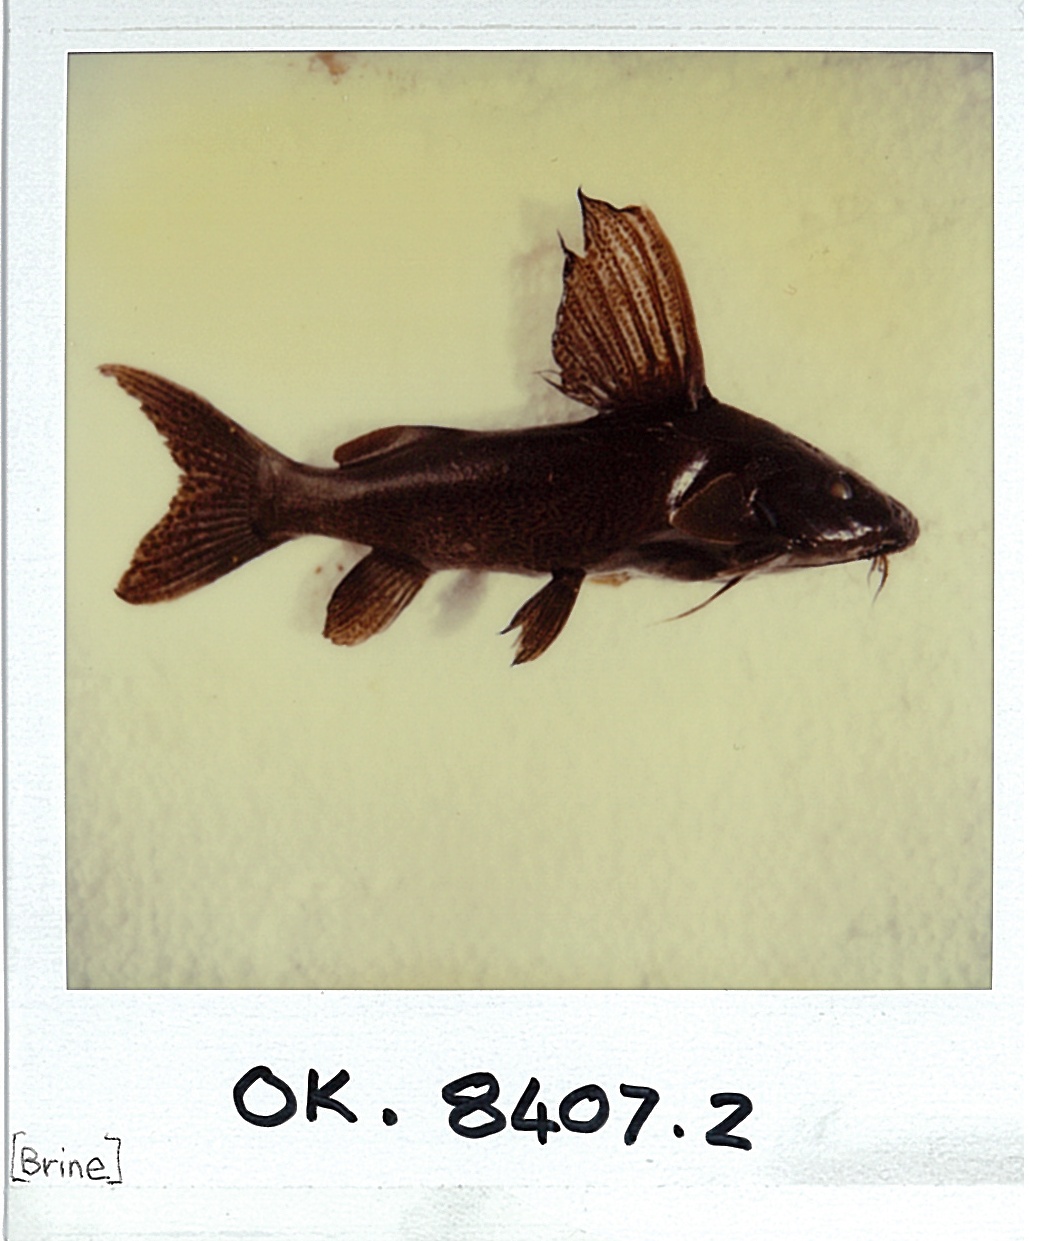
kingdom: Animalia
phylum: Chordata
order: Siluriformes
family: Mochokidae
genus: Synodontis
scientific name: Synodontis thamalakanensis
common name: Bubblebarb squeaker
